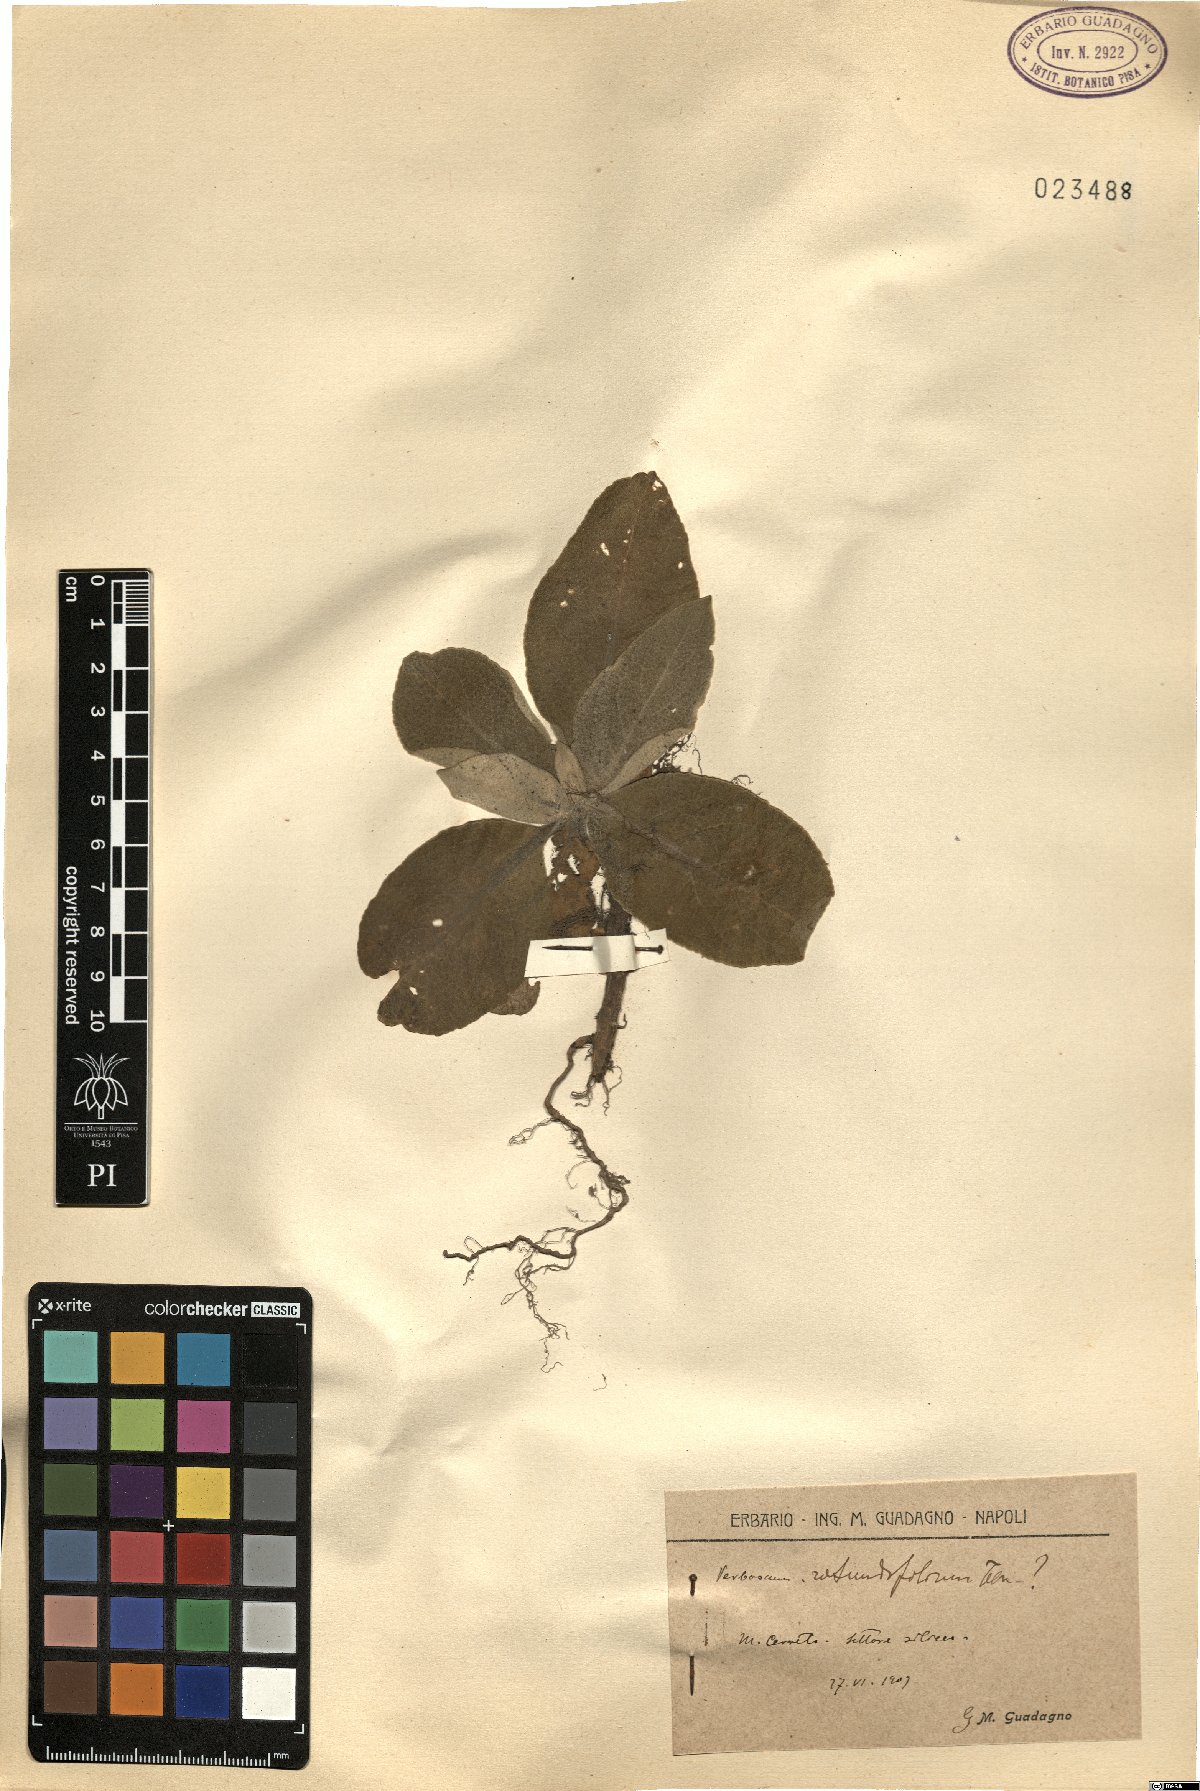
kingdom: Plantae
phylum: Tracheophyta
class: Magnoliopsida
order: Lamiales
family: Scrophulariaceae
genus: Verbascum
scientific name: Verbascum rotundifolium
